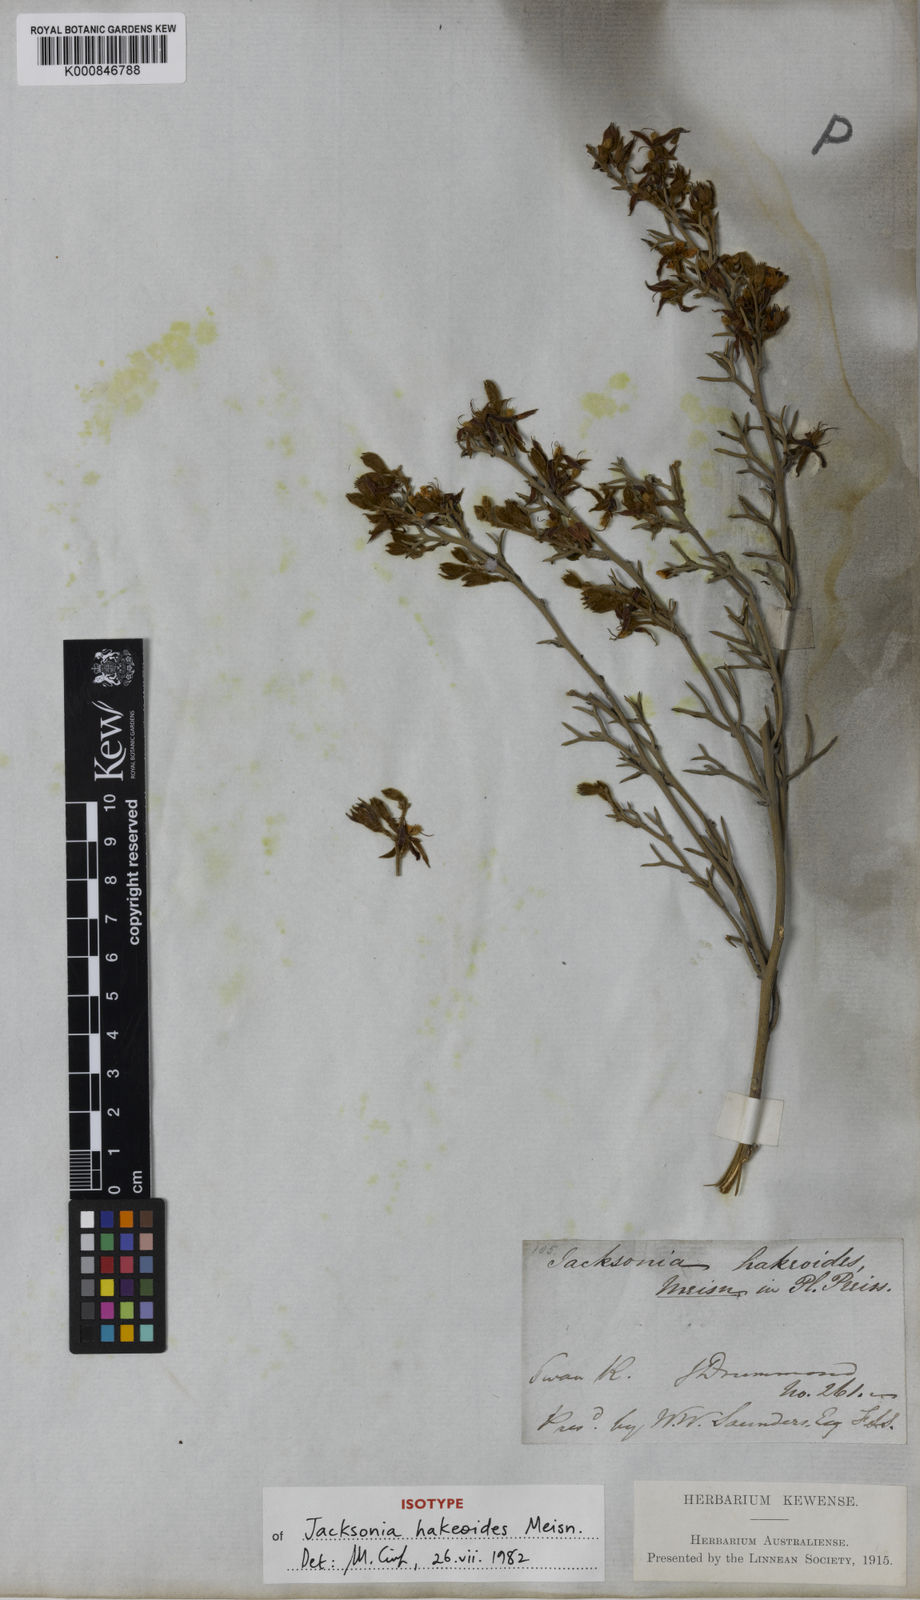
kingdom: Plantae
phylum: Tracheophyta
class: Magnoliopsida
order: Fabales
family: Fabaceae
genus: Jacksonia
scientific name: Jacksonia hakeoides
